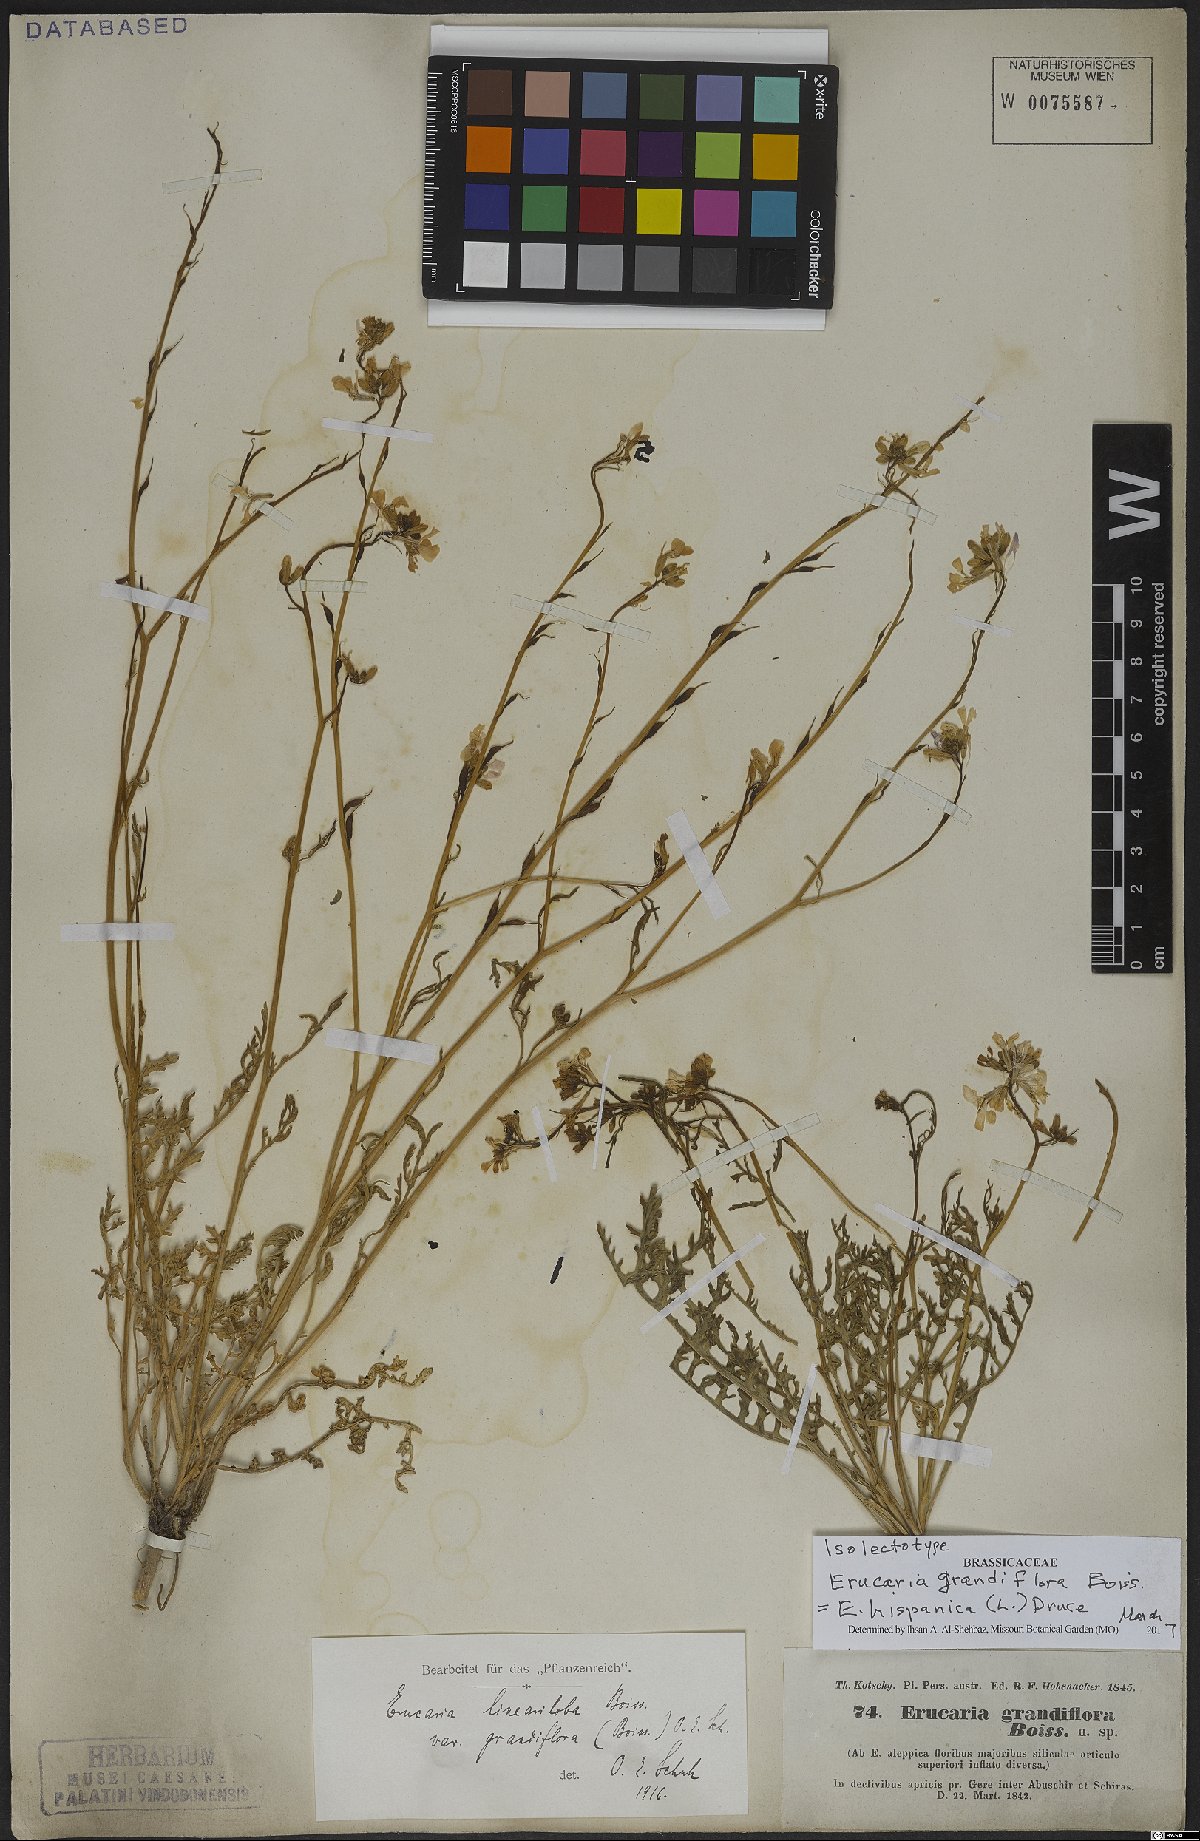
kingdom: Plantae
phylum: Tracheophyta
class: Magnoliopsida
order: Brassicales
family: Brassicaceae
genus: Erucaria
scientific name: Erucaria hispanica
